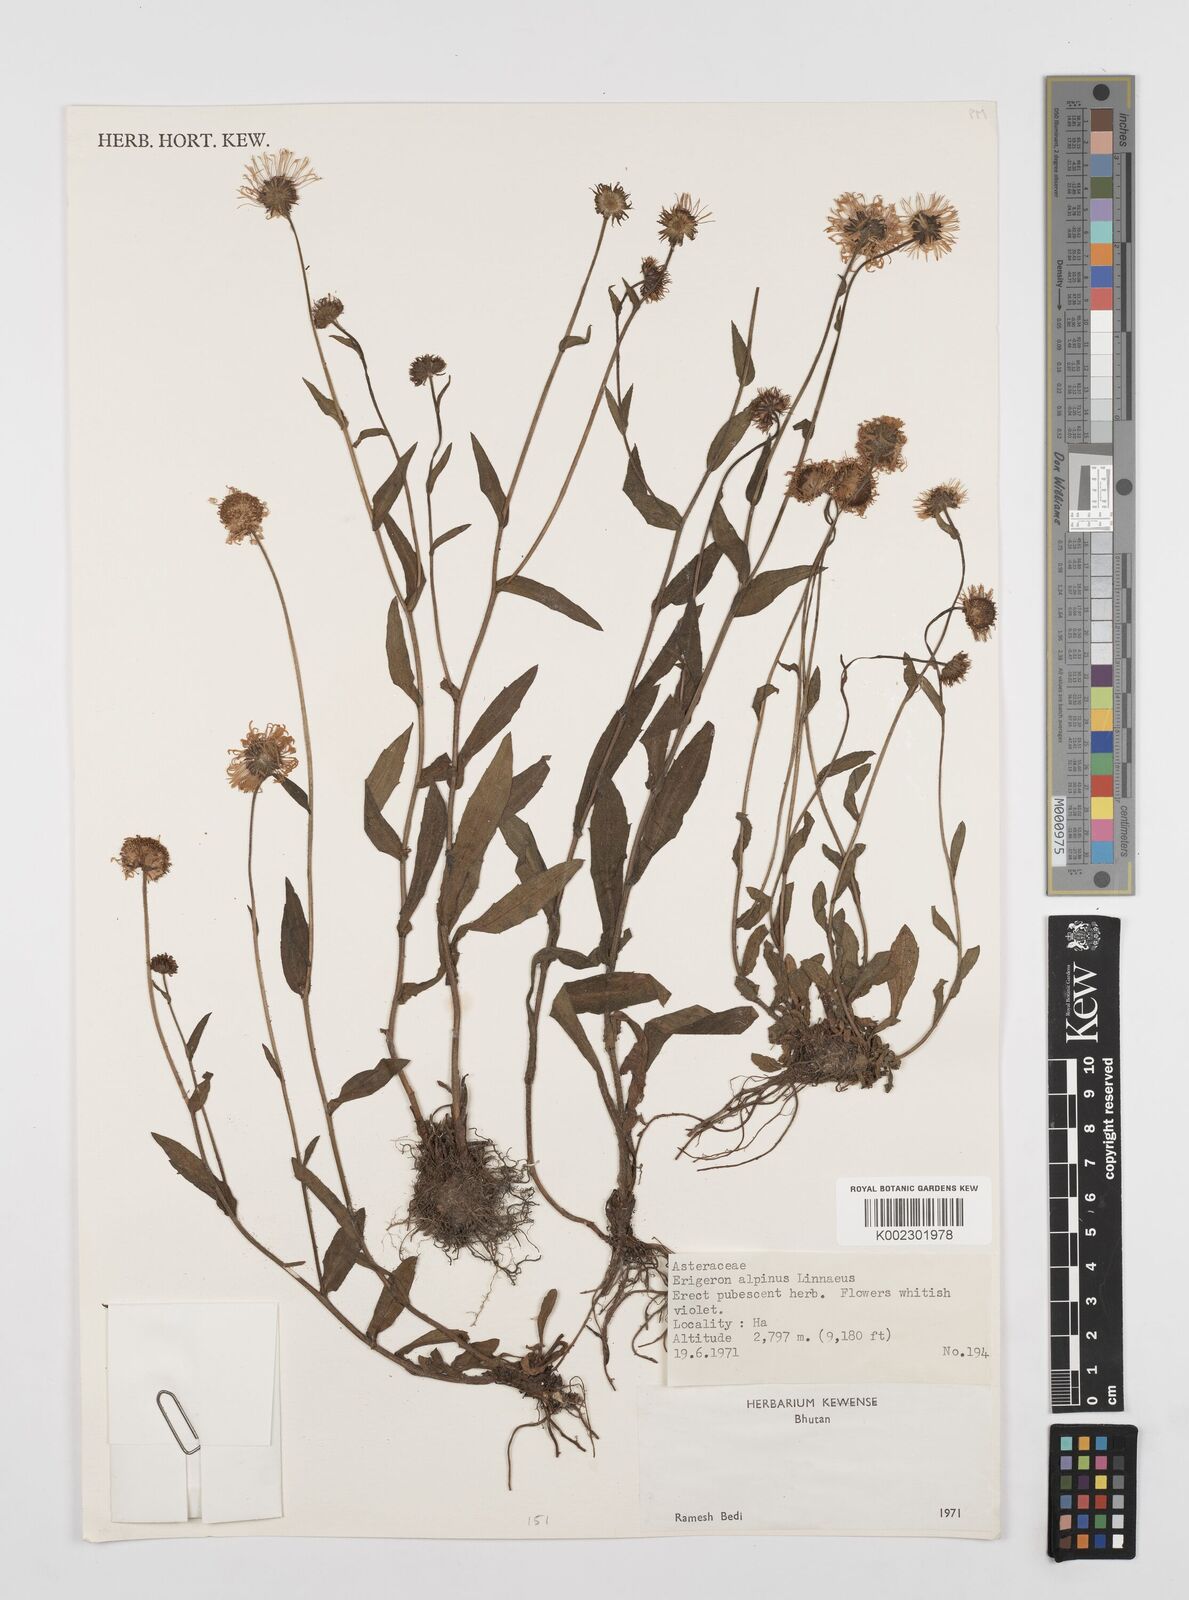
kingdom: Plantae
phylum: Tracheophyta
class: Magnoliopsida
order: Asterales
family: Asteraceae
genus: Erigeron
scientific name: Erigeron alpinus
